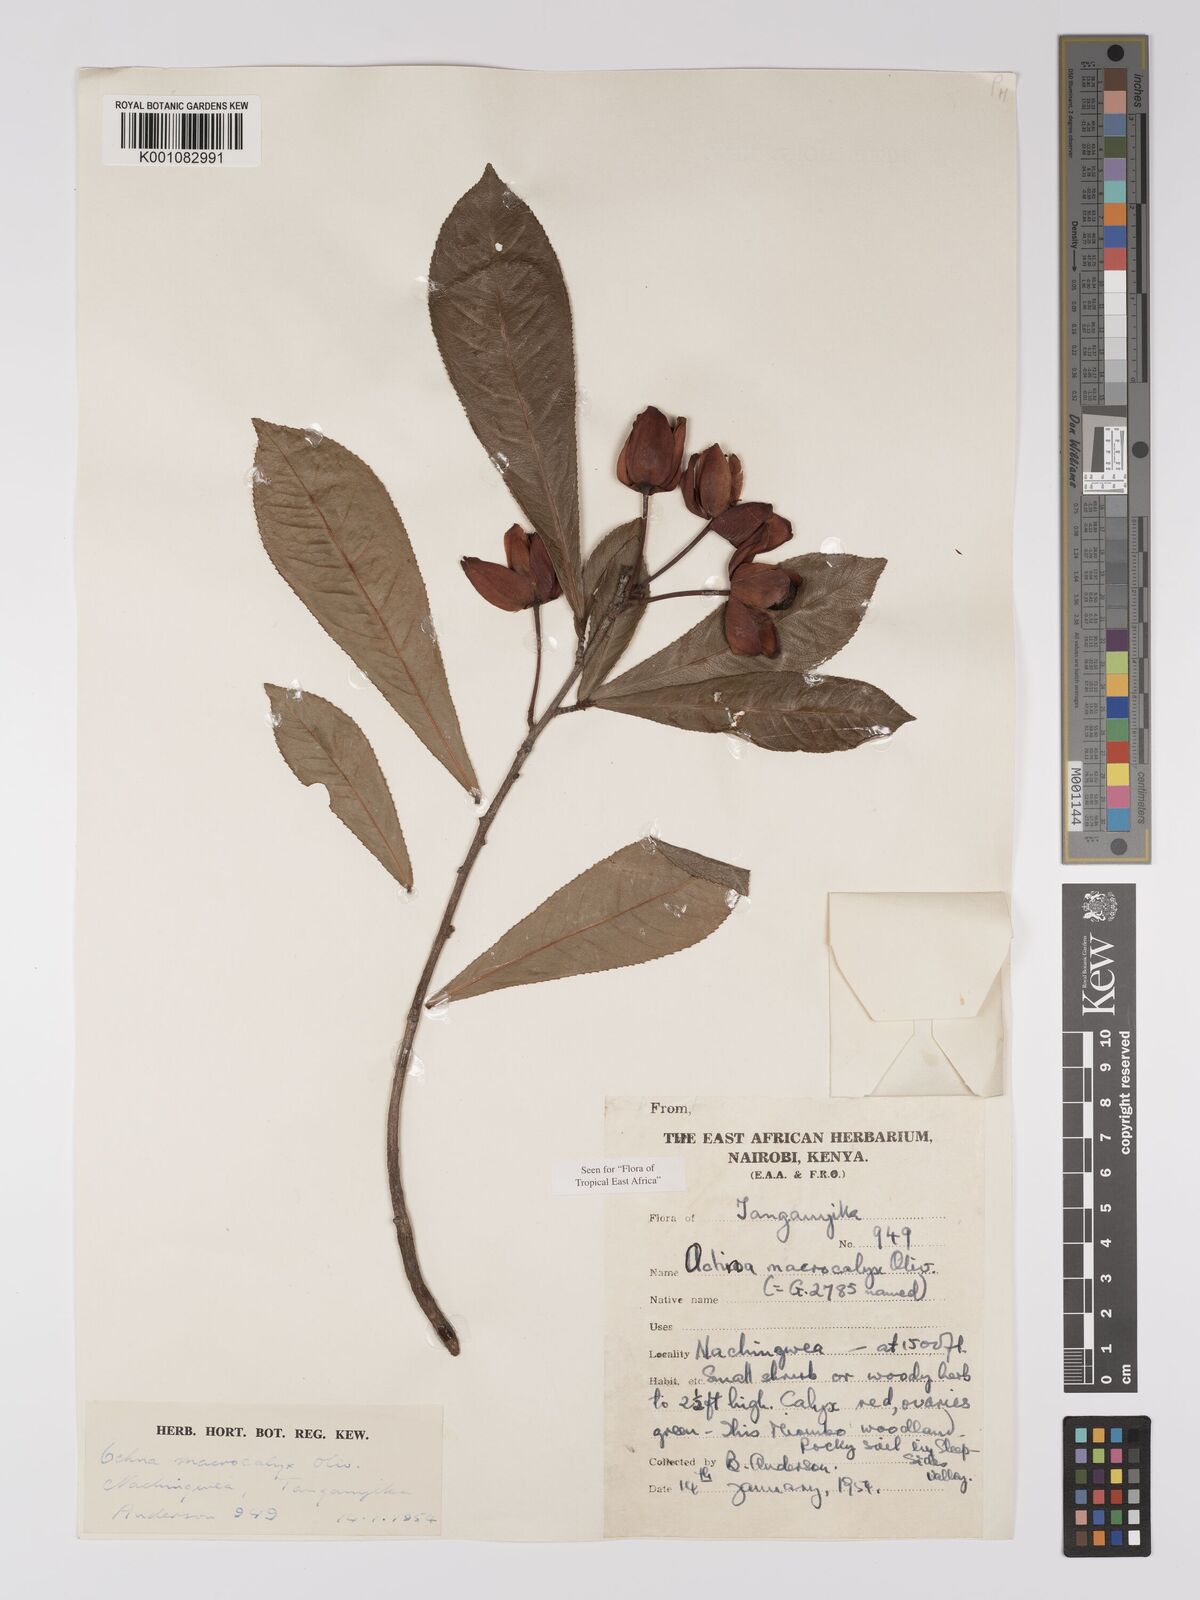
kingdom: Plantae
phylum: Tracheophyta
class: Magnoliopsida
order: Malpighiales
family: Ochnaceae
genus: Ochna
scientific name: Ochna macrocalyx
